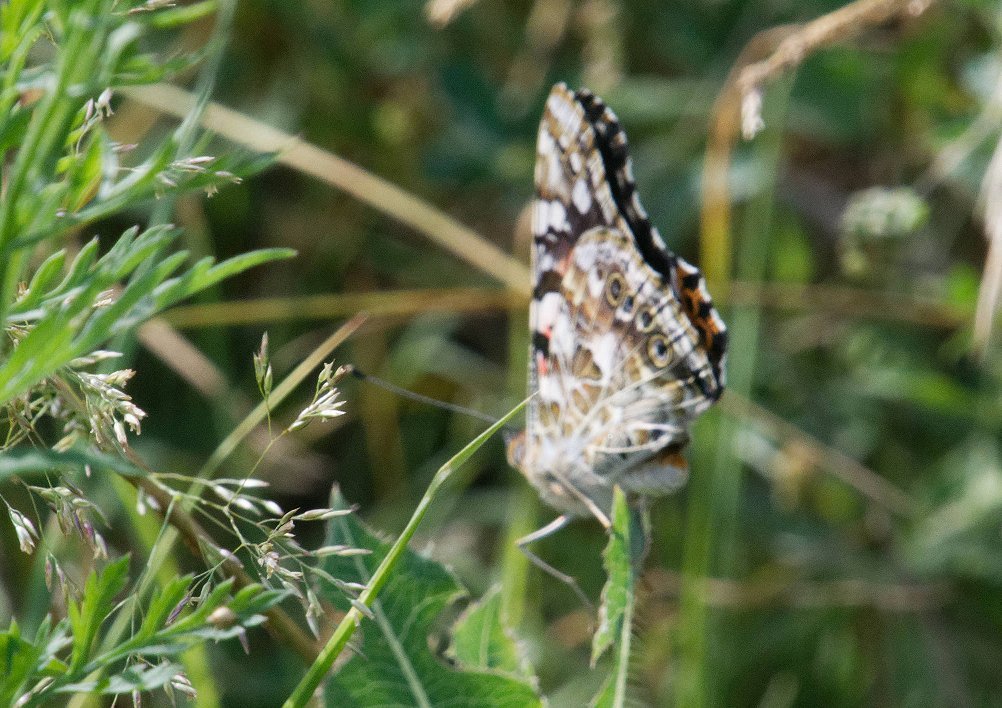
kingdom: Animalia
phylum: Arthropoda
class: Insecta
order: Lepidoptera
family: Nymphalidae
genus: Vanessa
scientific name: Vanessa cardui
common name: Painted Lady
